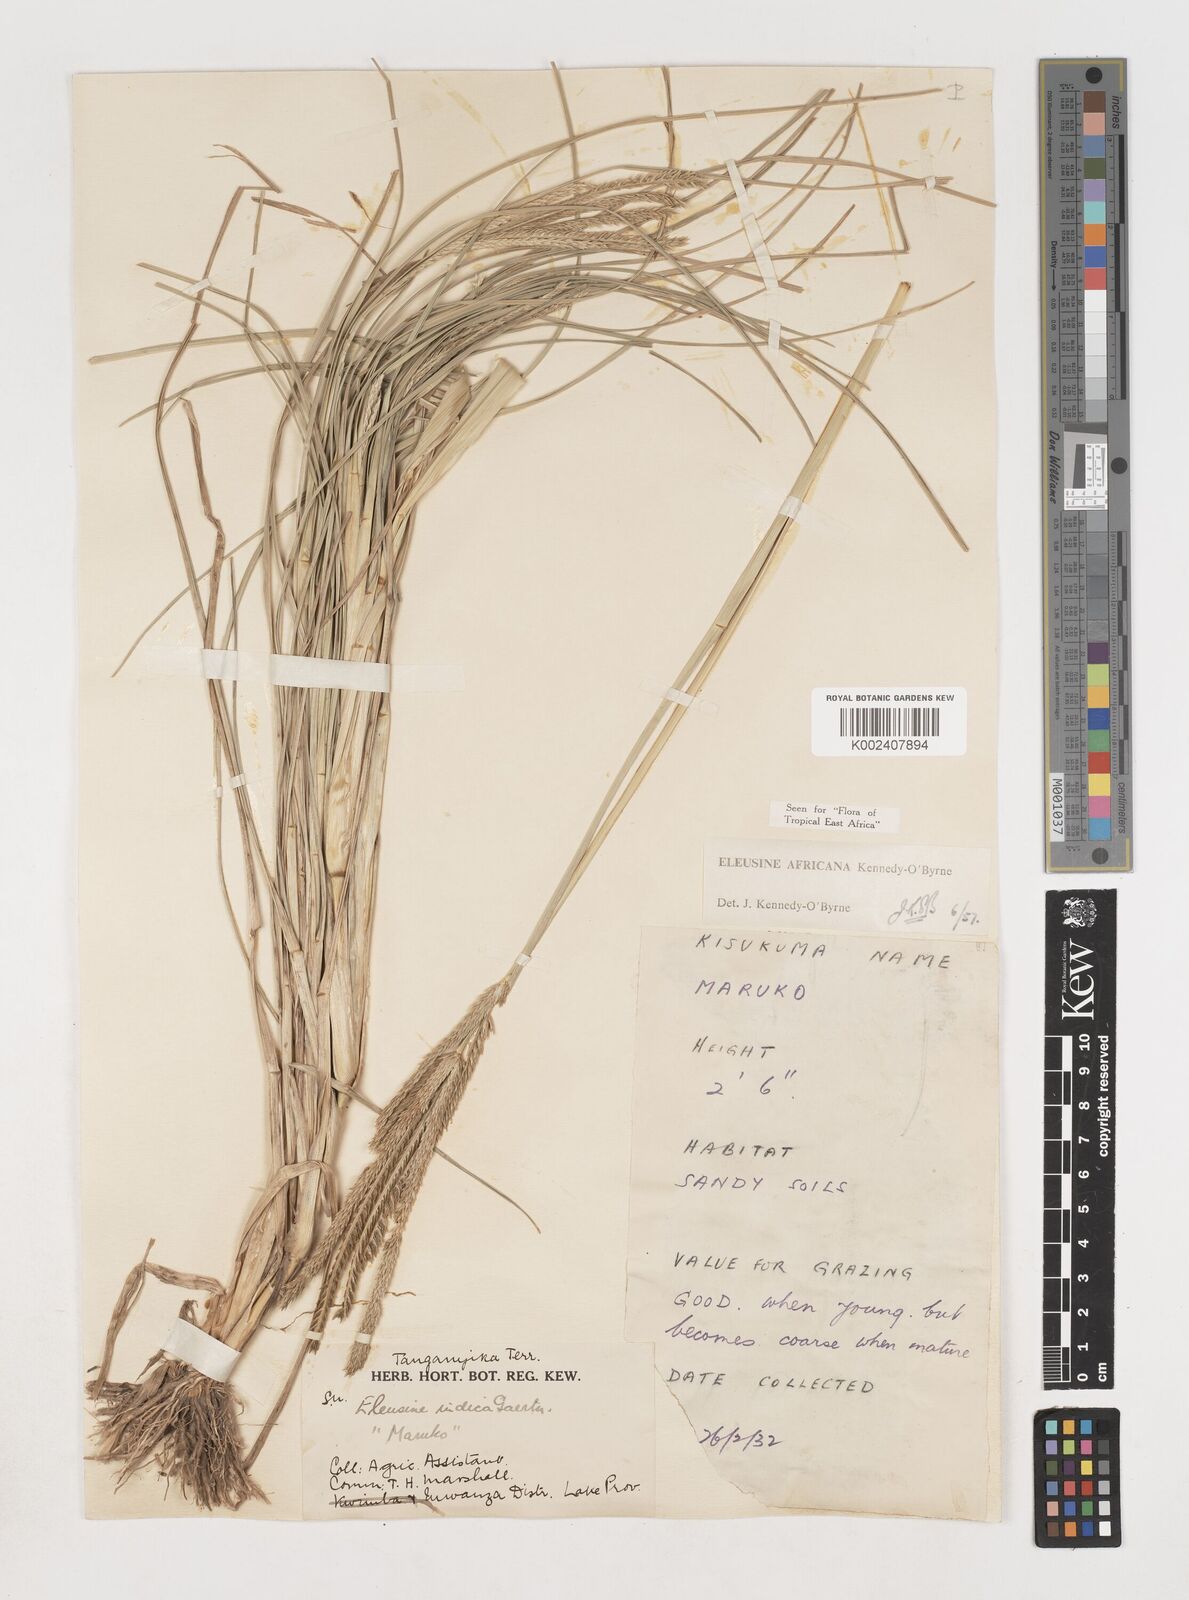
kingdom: Plantae
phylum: Tracheophyta
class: Liliopsida
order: Poales
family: Poaceae
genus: Eleusine
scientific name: Eleusine africana
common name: Wild african finger millet
